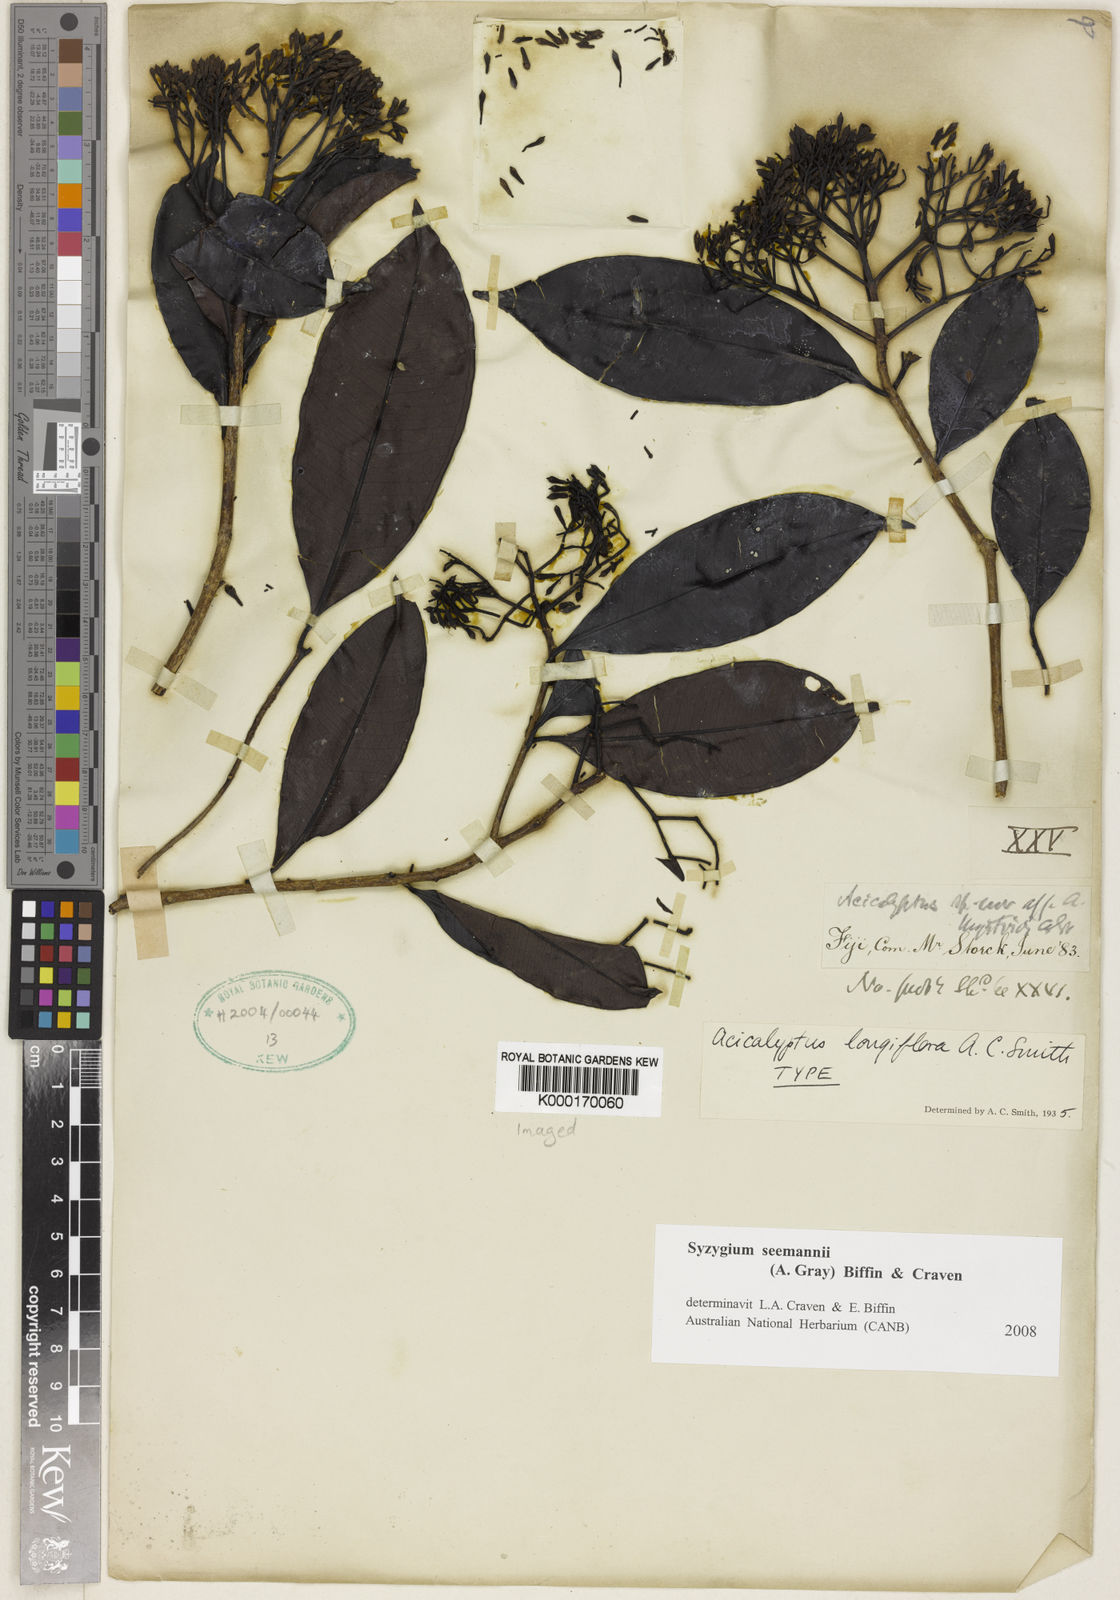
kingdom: Plantae
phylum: Tracheophyta
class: Magnoliopsida
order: Myrtales
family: Myrtaceae
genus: Syzygium
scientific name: Syzygium seemannii
